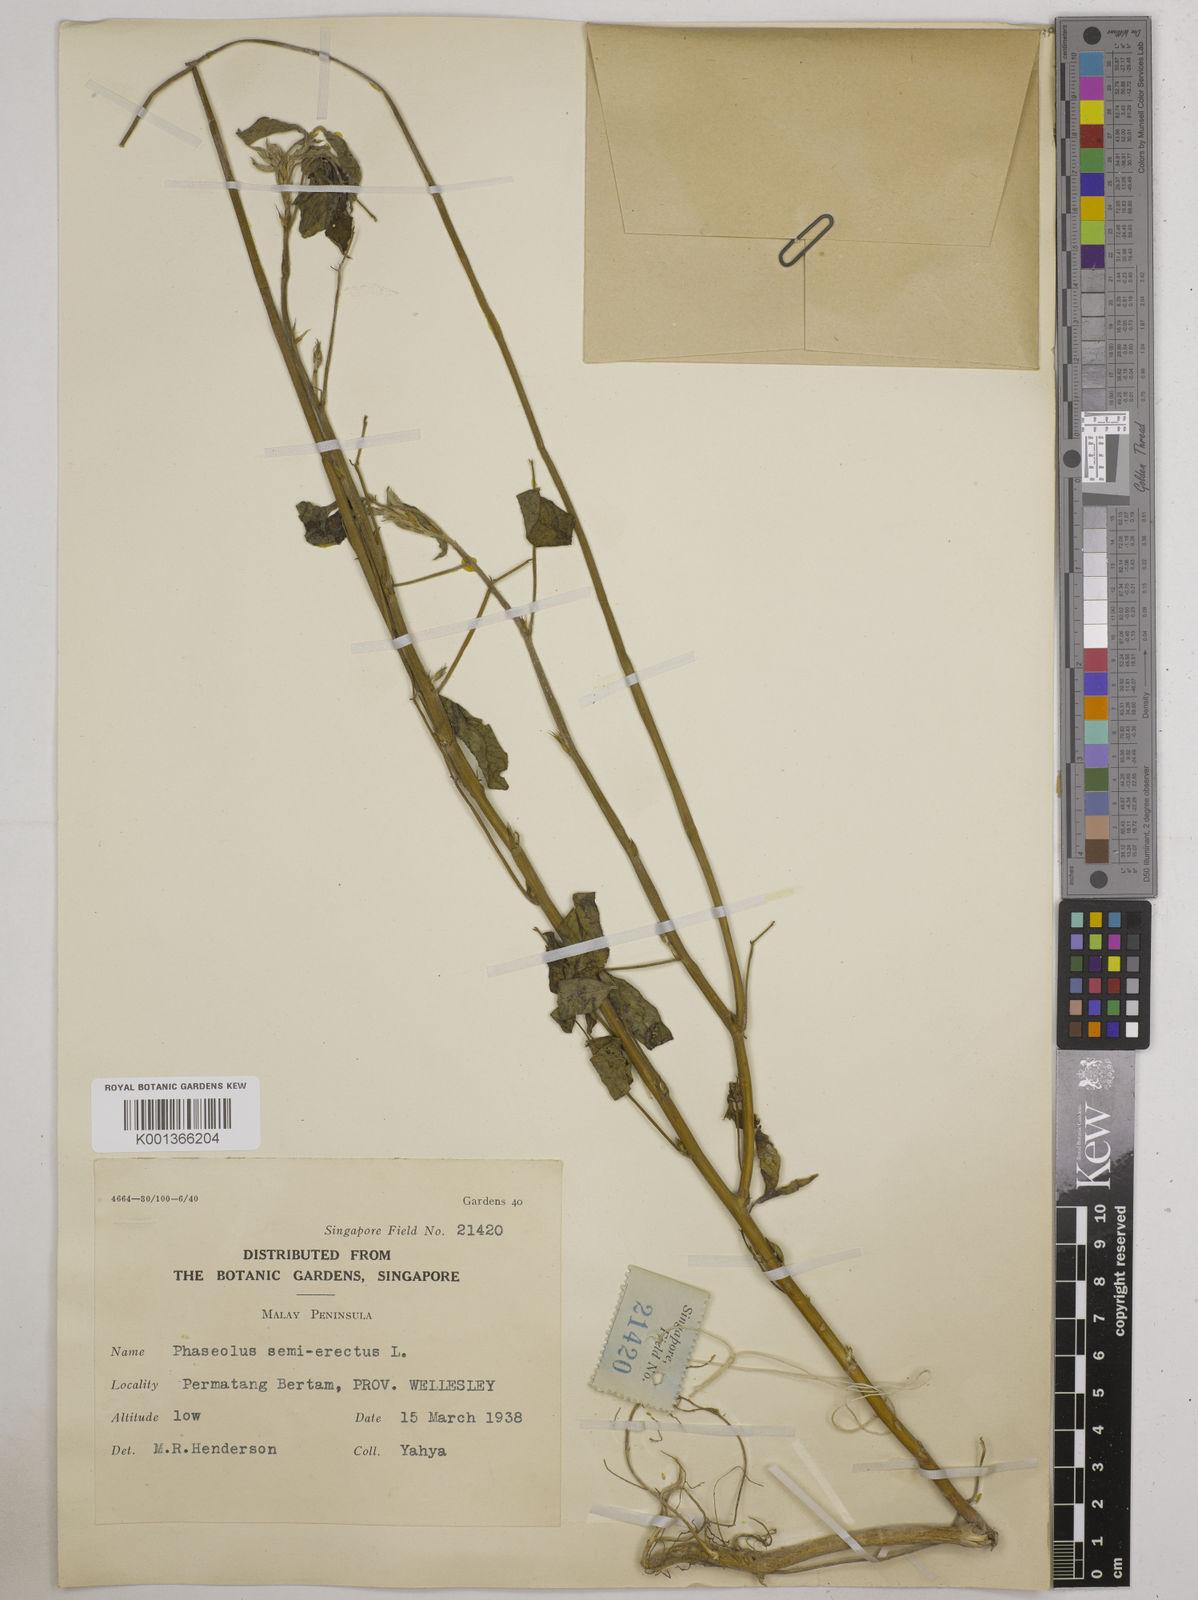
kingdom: Plantae
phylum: Tracheophyta
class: Magnoliopsida
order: Fabales
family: Fabaceae
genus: Macroptilium
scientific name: Macroptilium lathyroides
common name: Wild bushbean
